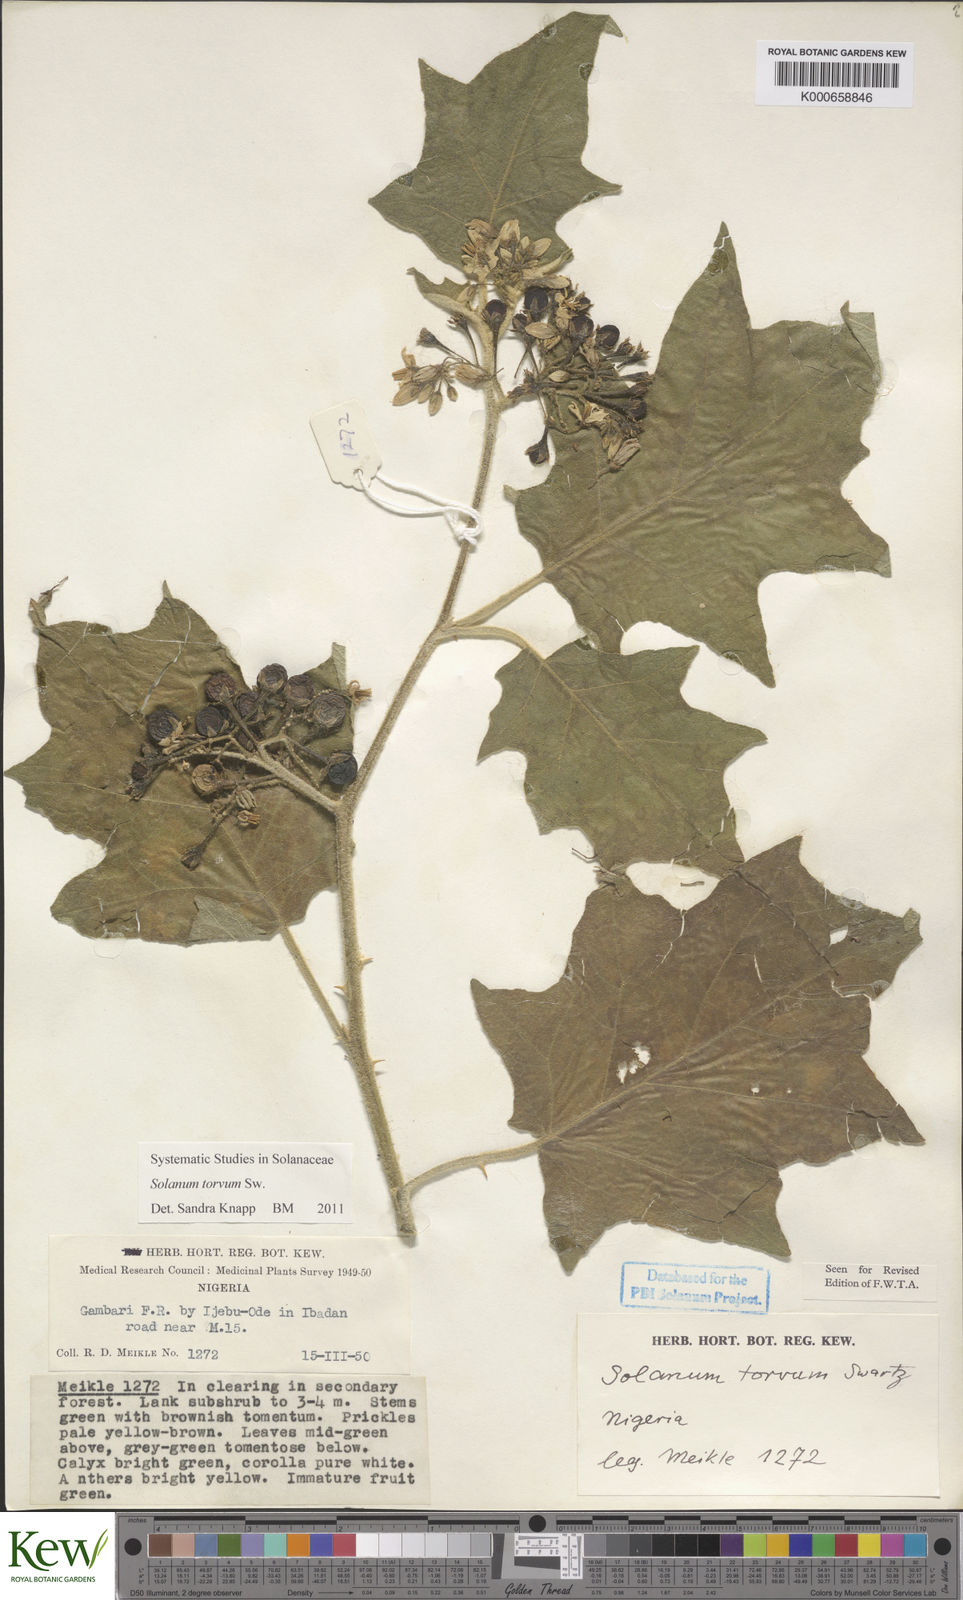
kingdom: Plantae
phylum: Tracheophyta
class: Magnoliopsida
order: Solanales
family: Solanaceae
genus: Solanum
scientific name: Solanum torvum
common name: Turkey berry
